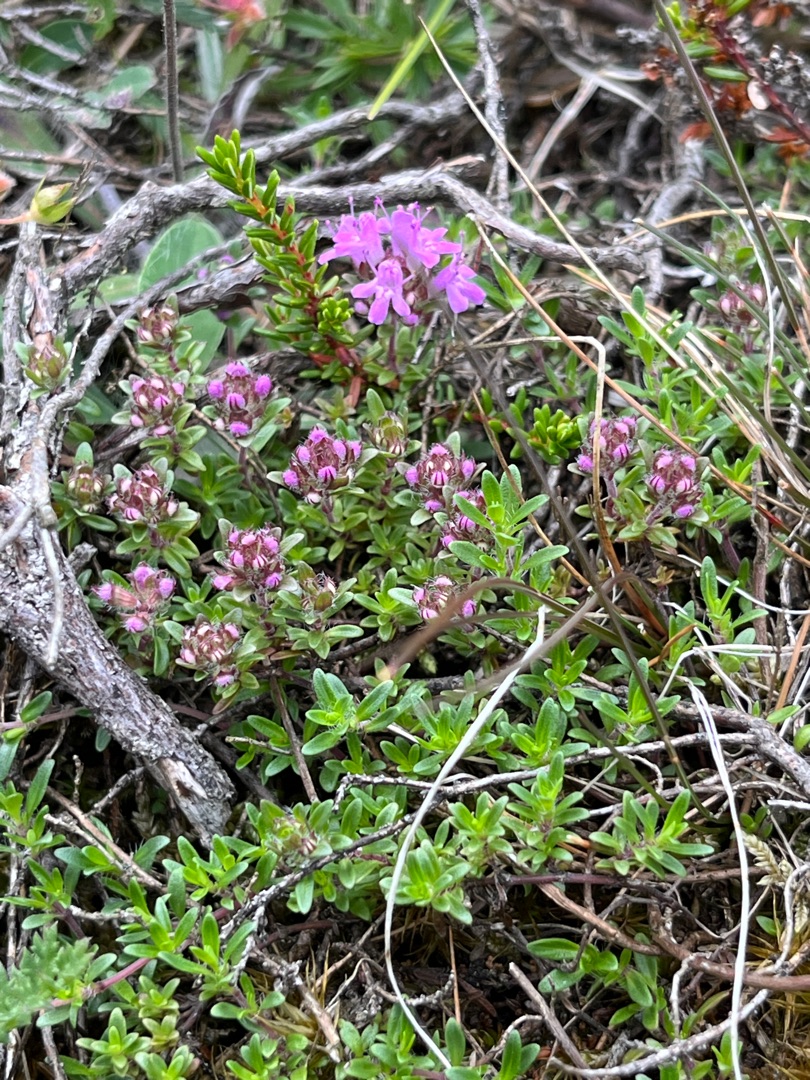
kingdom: Plantae
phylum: Tracheophyta
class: Magnoliopsida
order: Lamiales
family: Lamiaceae
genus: Thymus
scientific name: Thymus serpyllum
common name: Smalbladet timian
